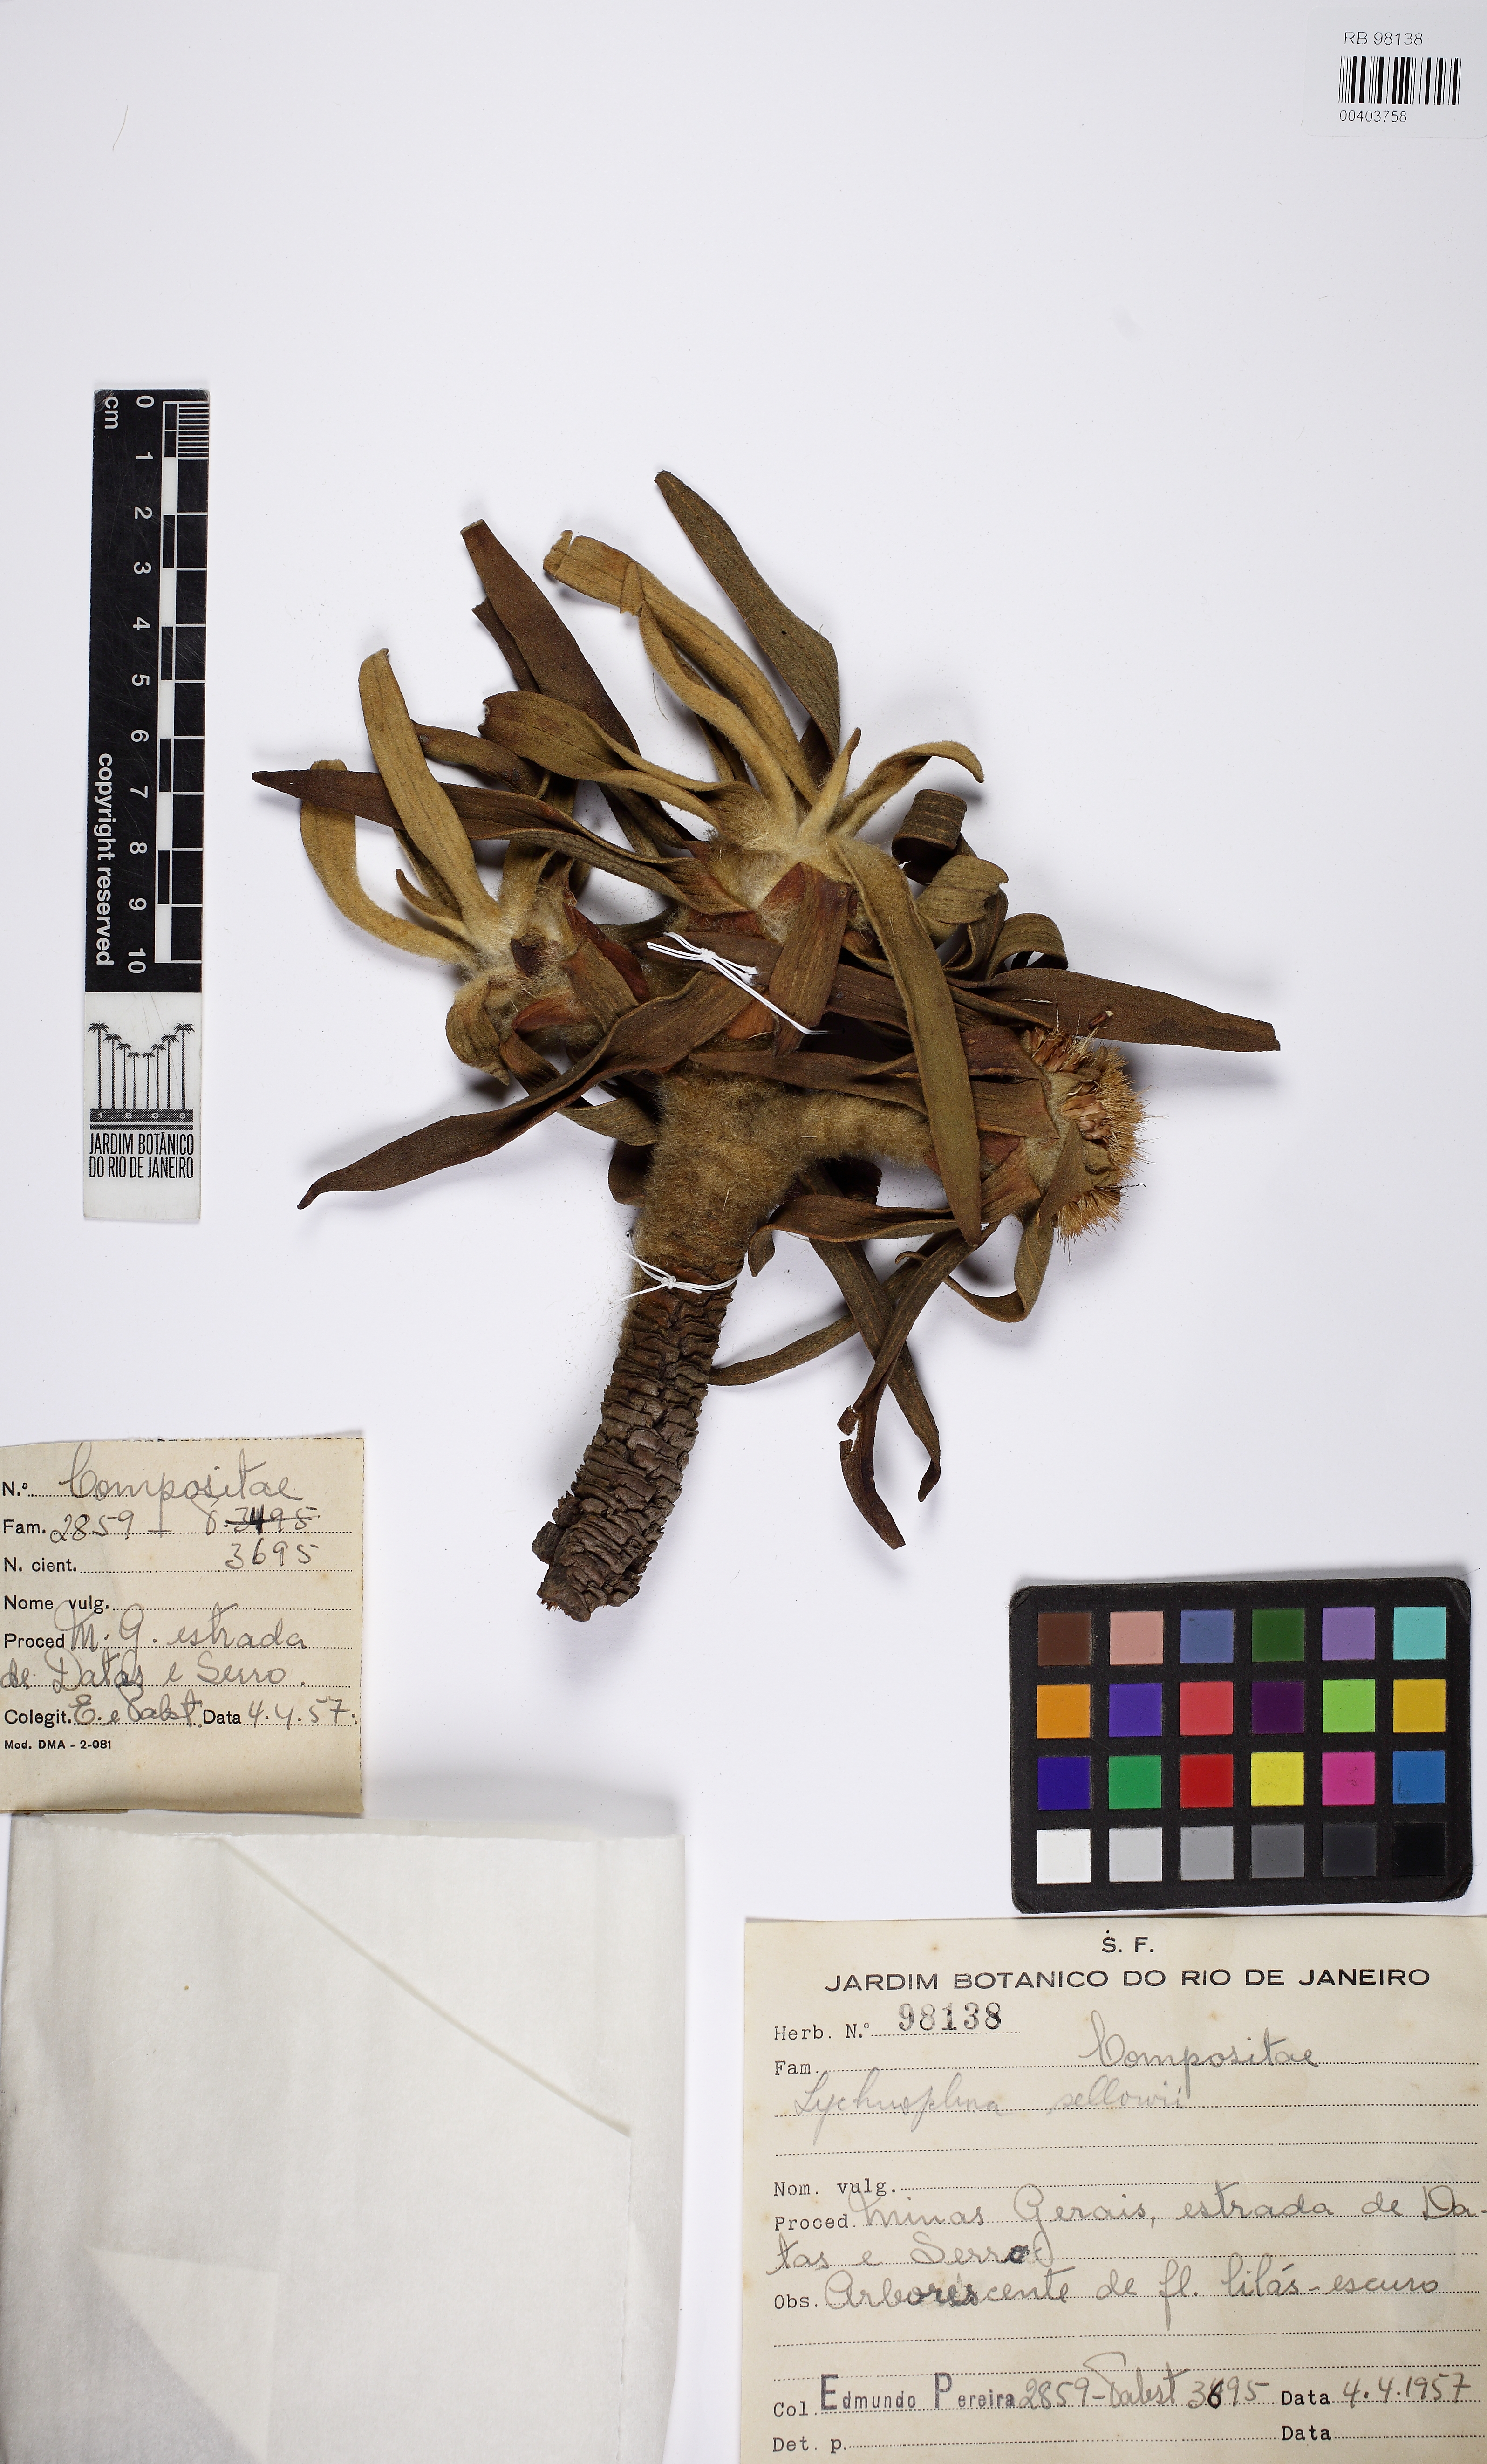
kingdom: Plantae
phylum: Tracheophyta
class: Magnoliopsida
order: Asterales
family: Asteraceae
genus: Lychnophora
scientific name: Lychnophora sellowii
